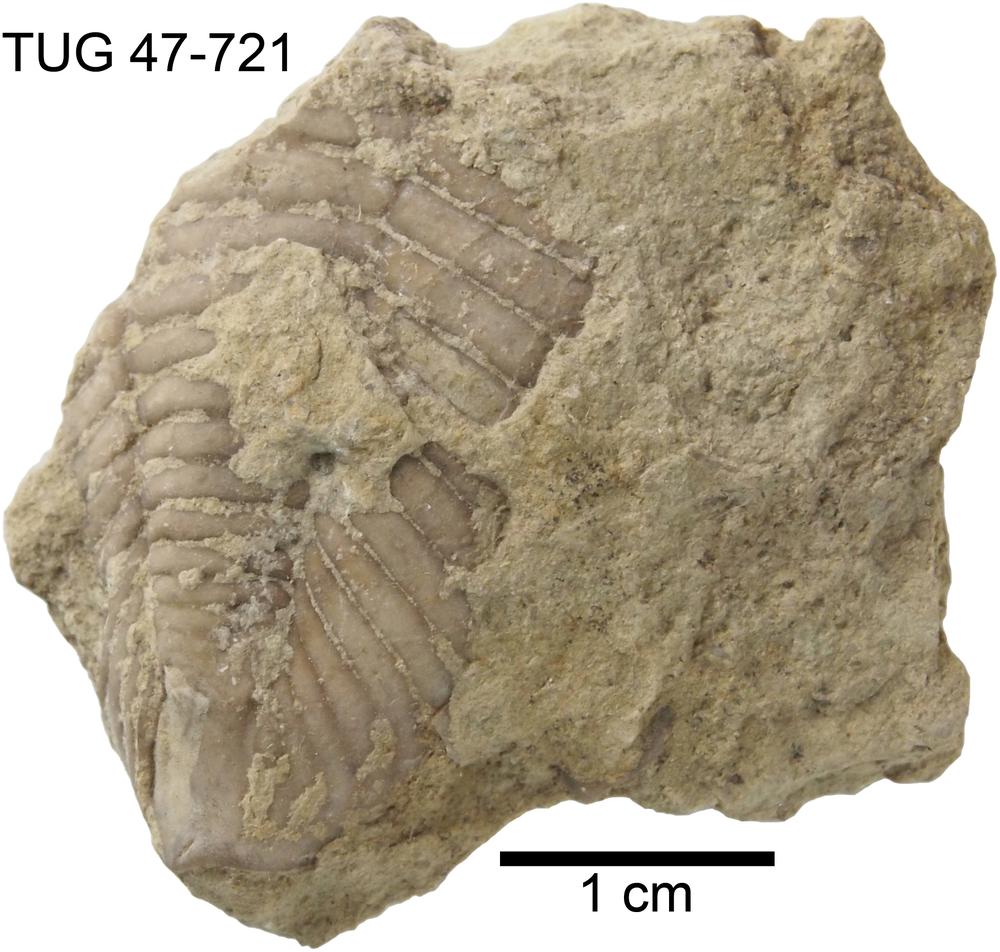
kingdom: Animalia
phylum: Arthropoda
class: Trilobita
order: Phacopida
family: Pterygometopidae
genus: Toxochasmops
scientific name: Toxochasmops maximus
